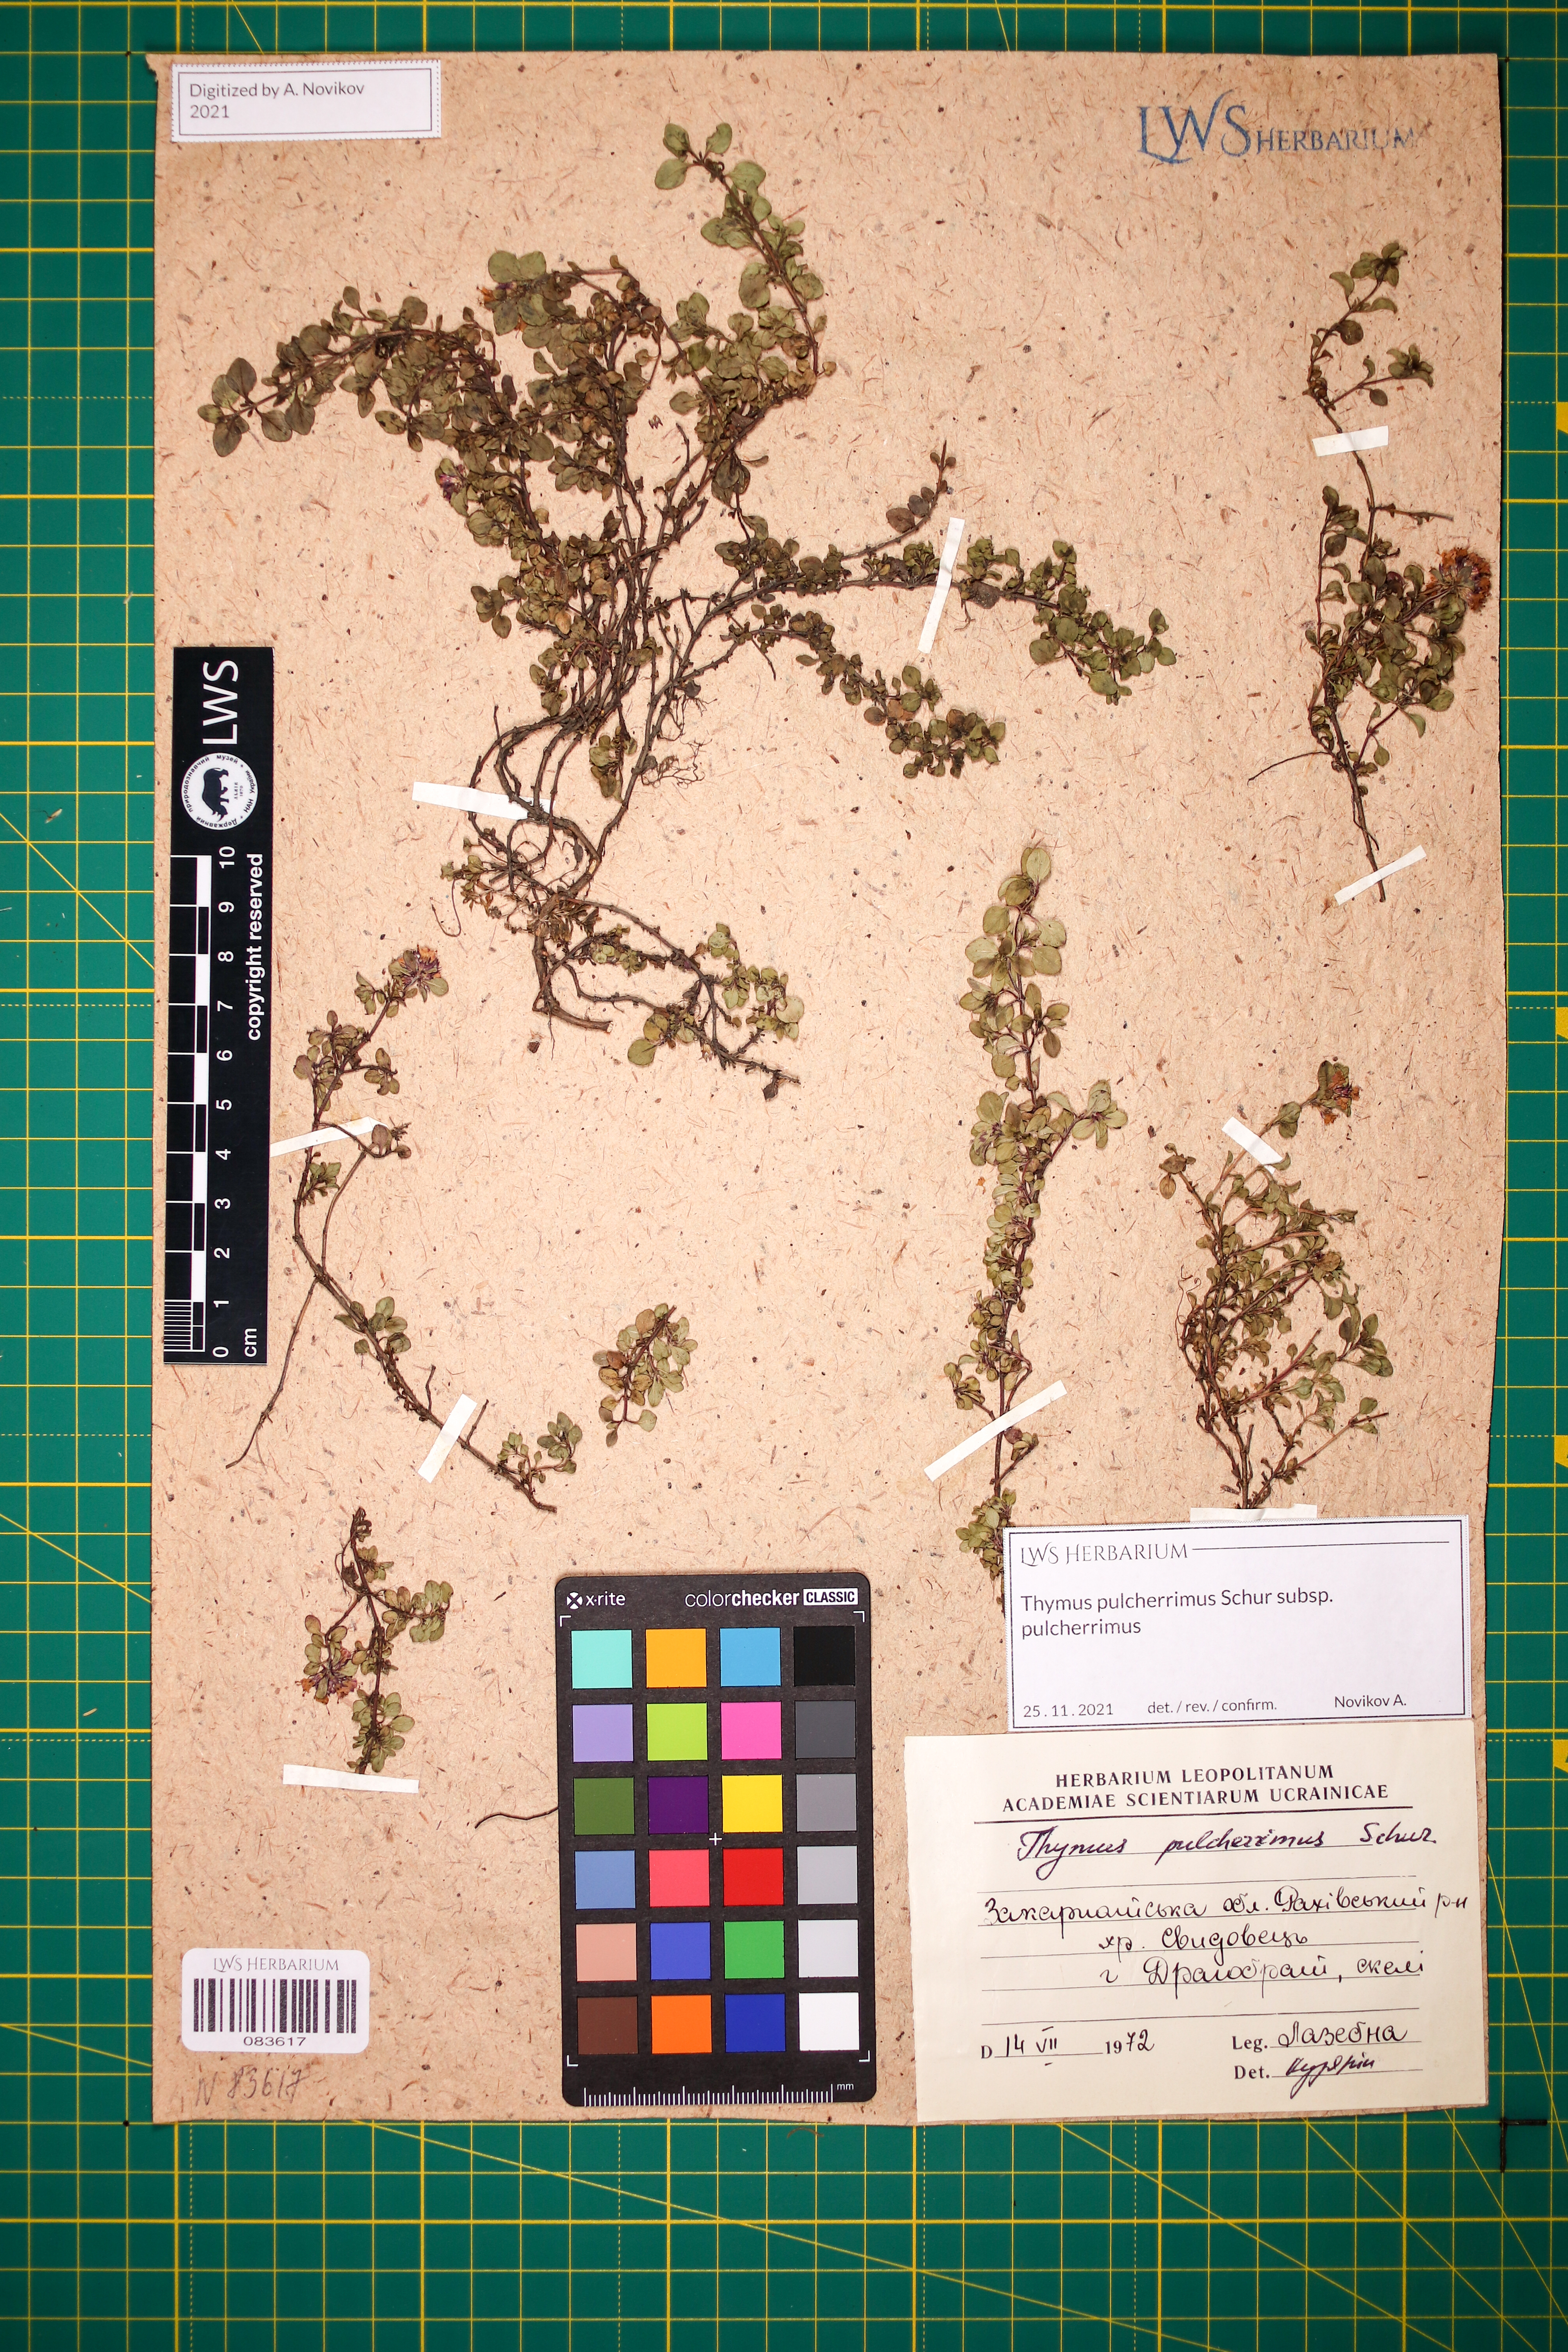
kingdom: Plantae
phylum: Tracheophyta
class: Magnoliopsida
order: Lamiales
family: Lamiaceae
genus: Thymus
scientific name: Thymus pulcherrimus
